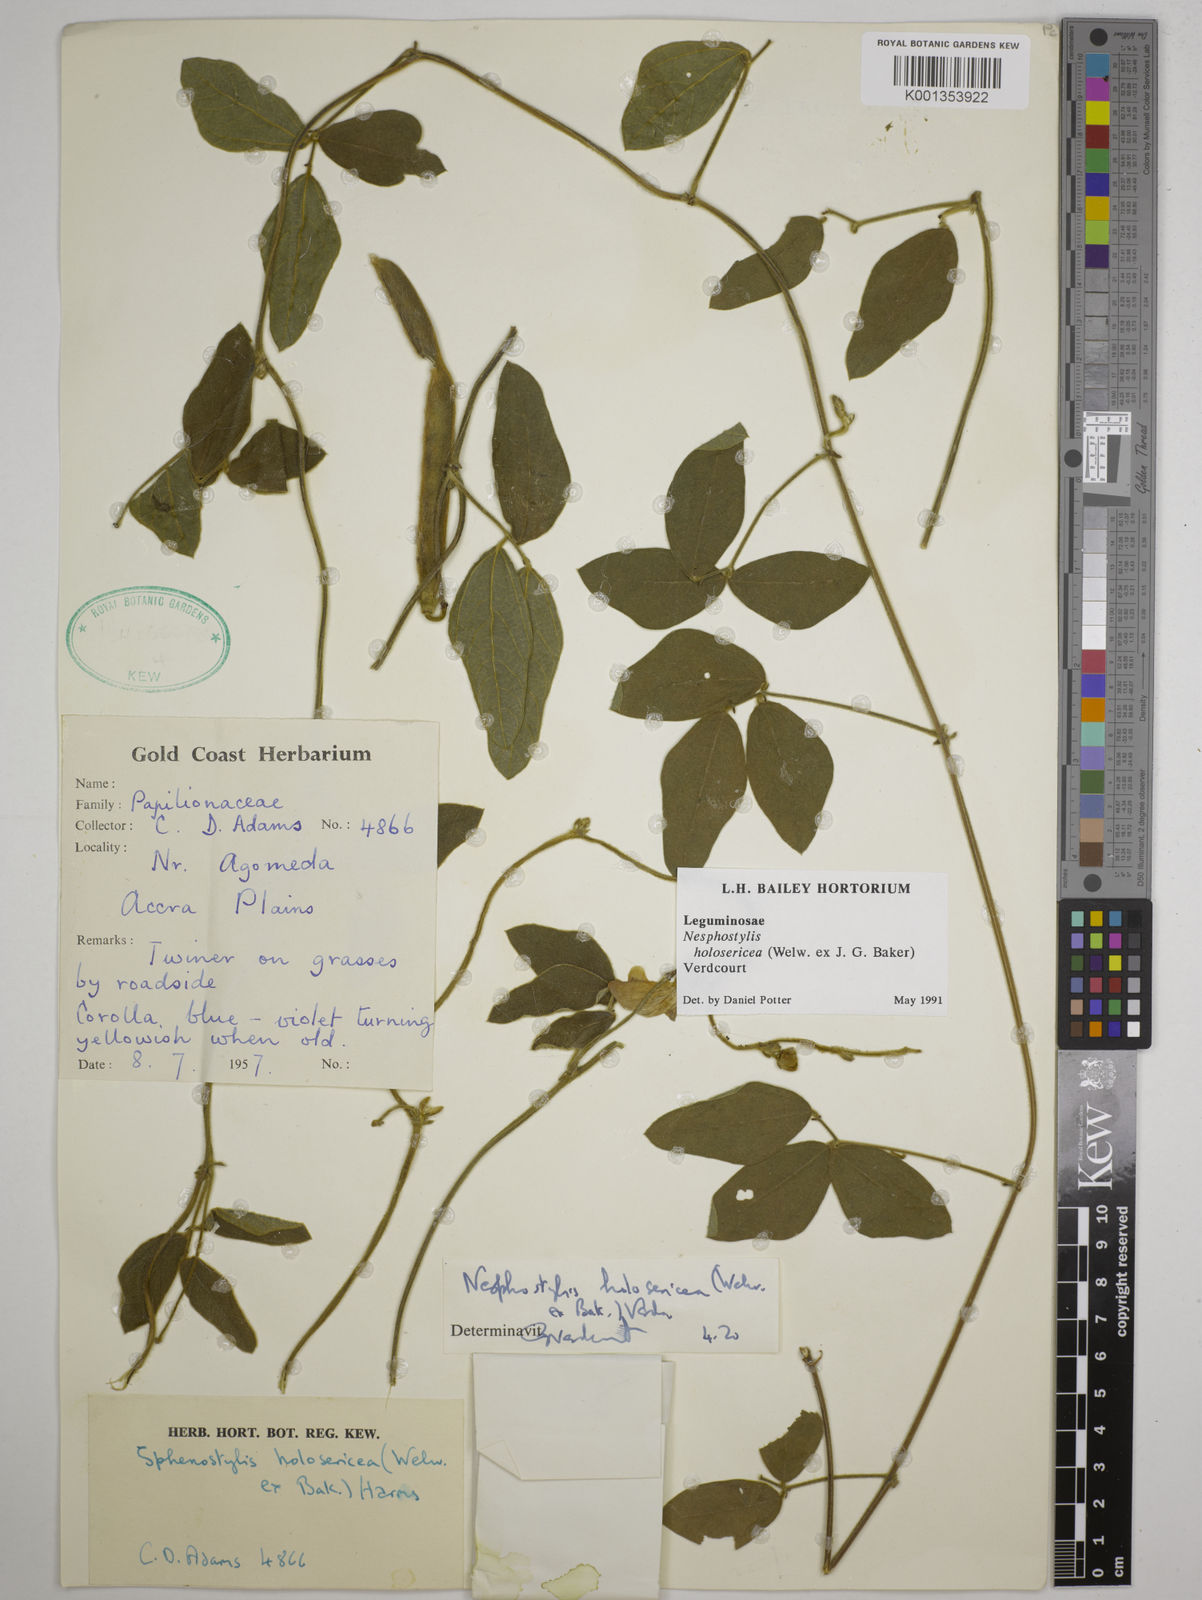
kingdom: Plantae
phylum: Tracheophyta
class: Magnoliopsida
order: Fabales
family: Fabaceae
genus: Nesphostylis
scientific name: Nesphostylis holosericea
